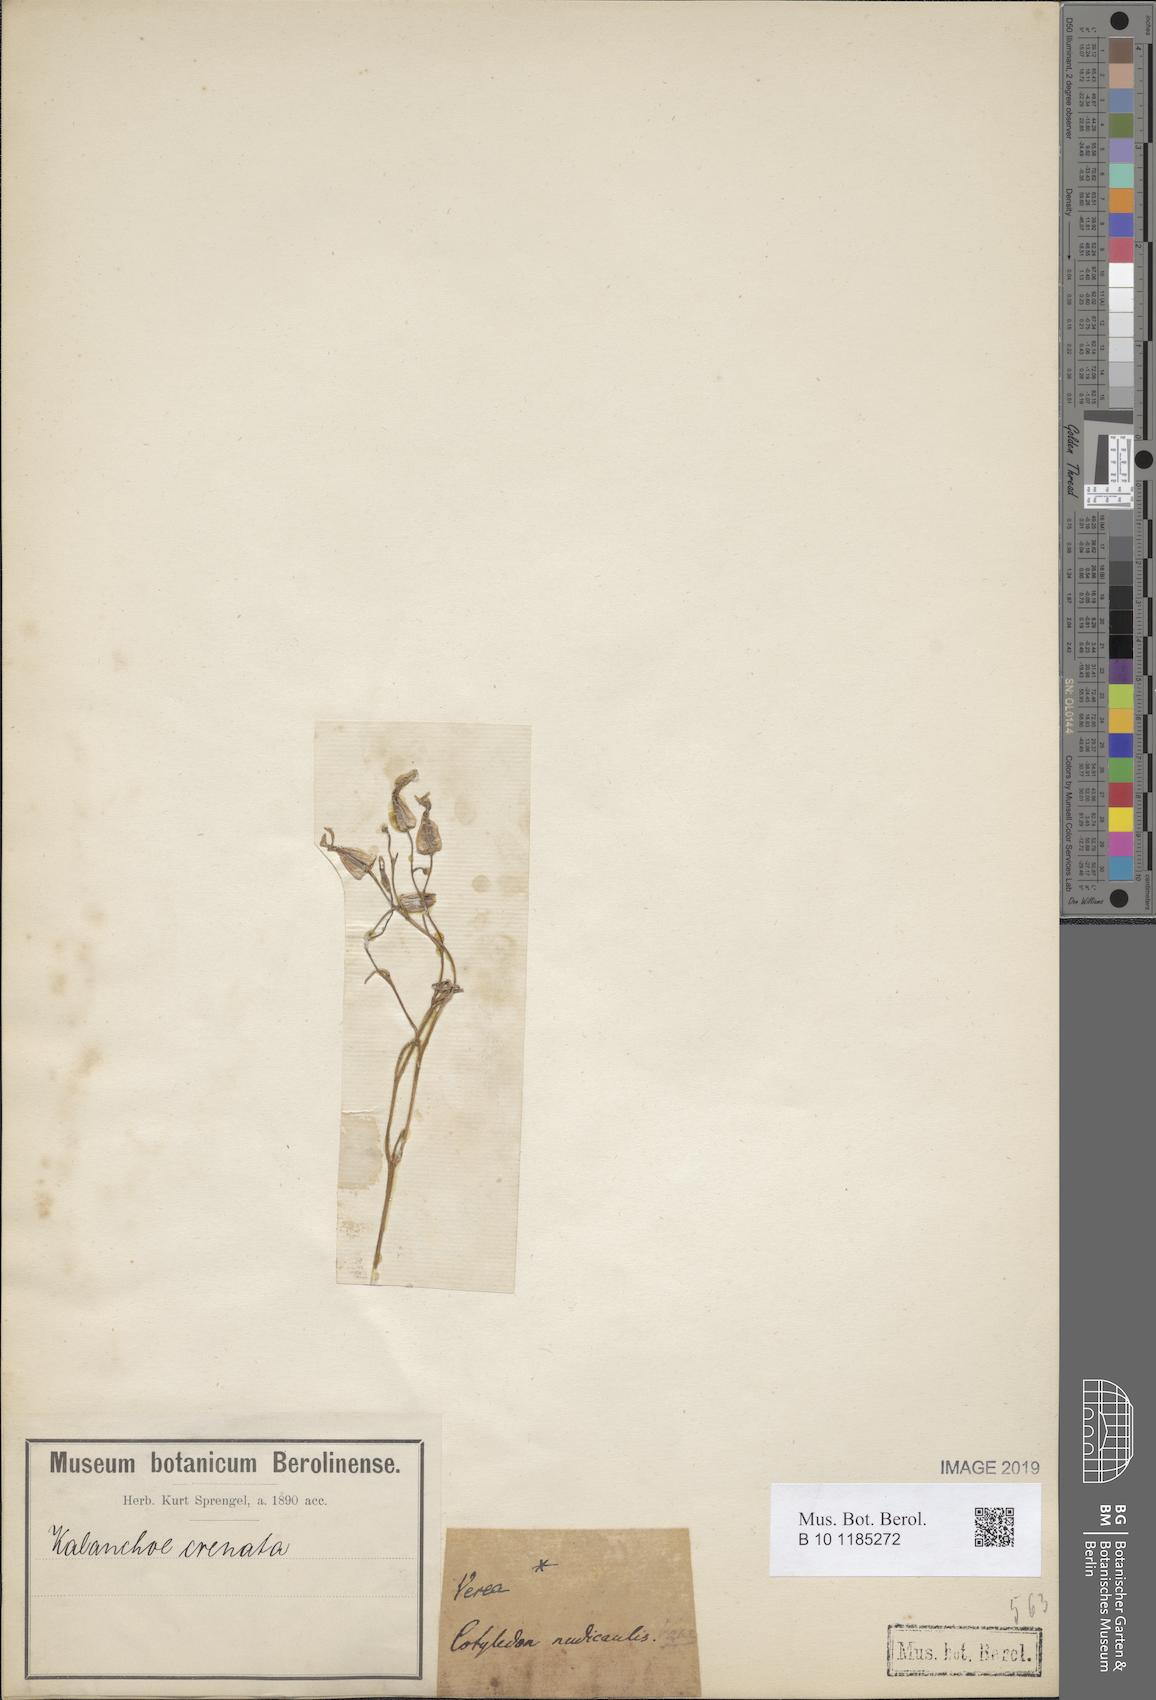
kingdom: Plantae
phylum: Tracheophyta
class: Magnoliopsida
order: Saxifragales
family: Crassulaceae
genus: Kalanchoe
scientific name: Kalanchoe crenata
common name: Neverdie
